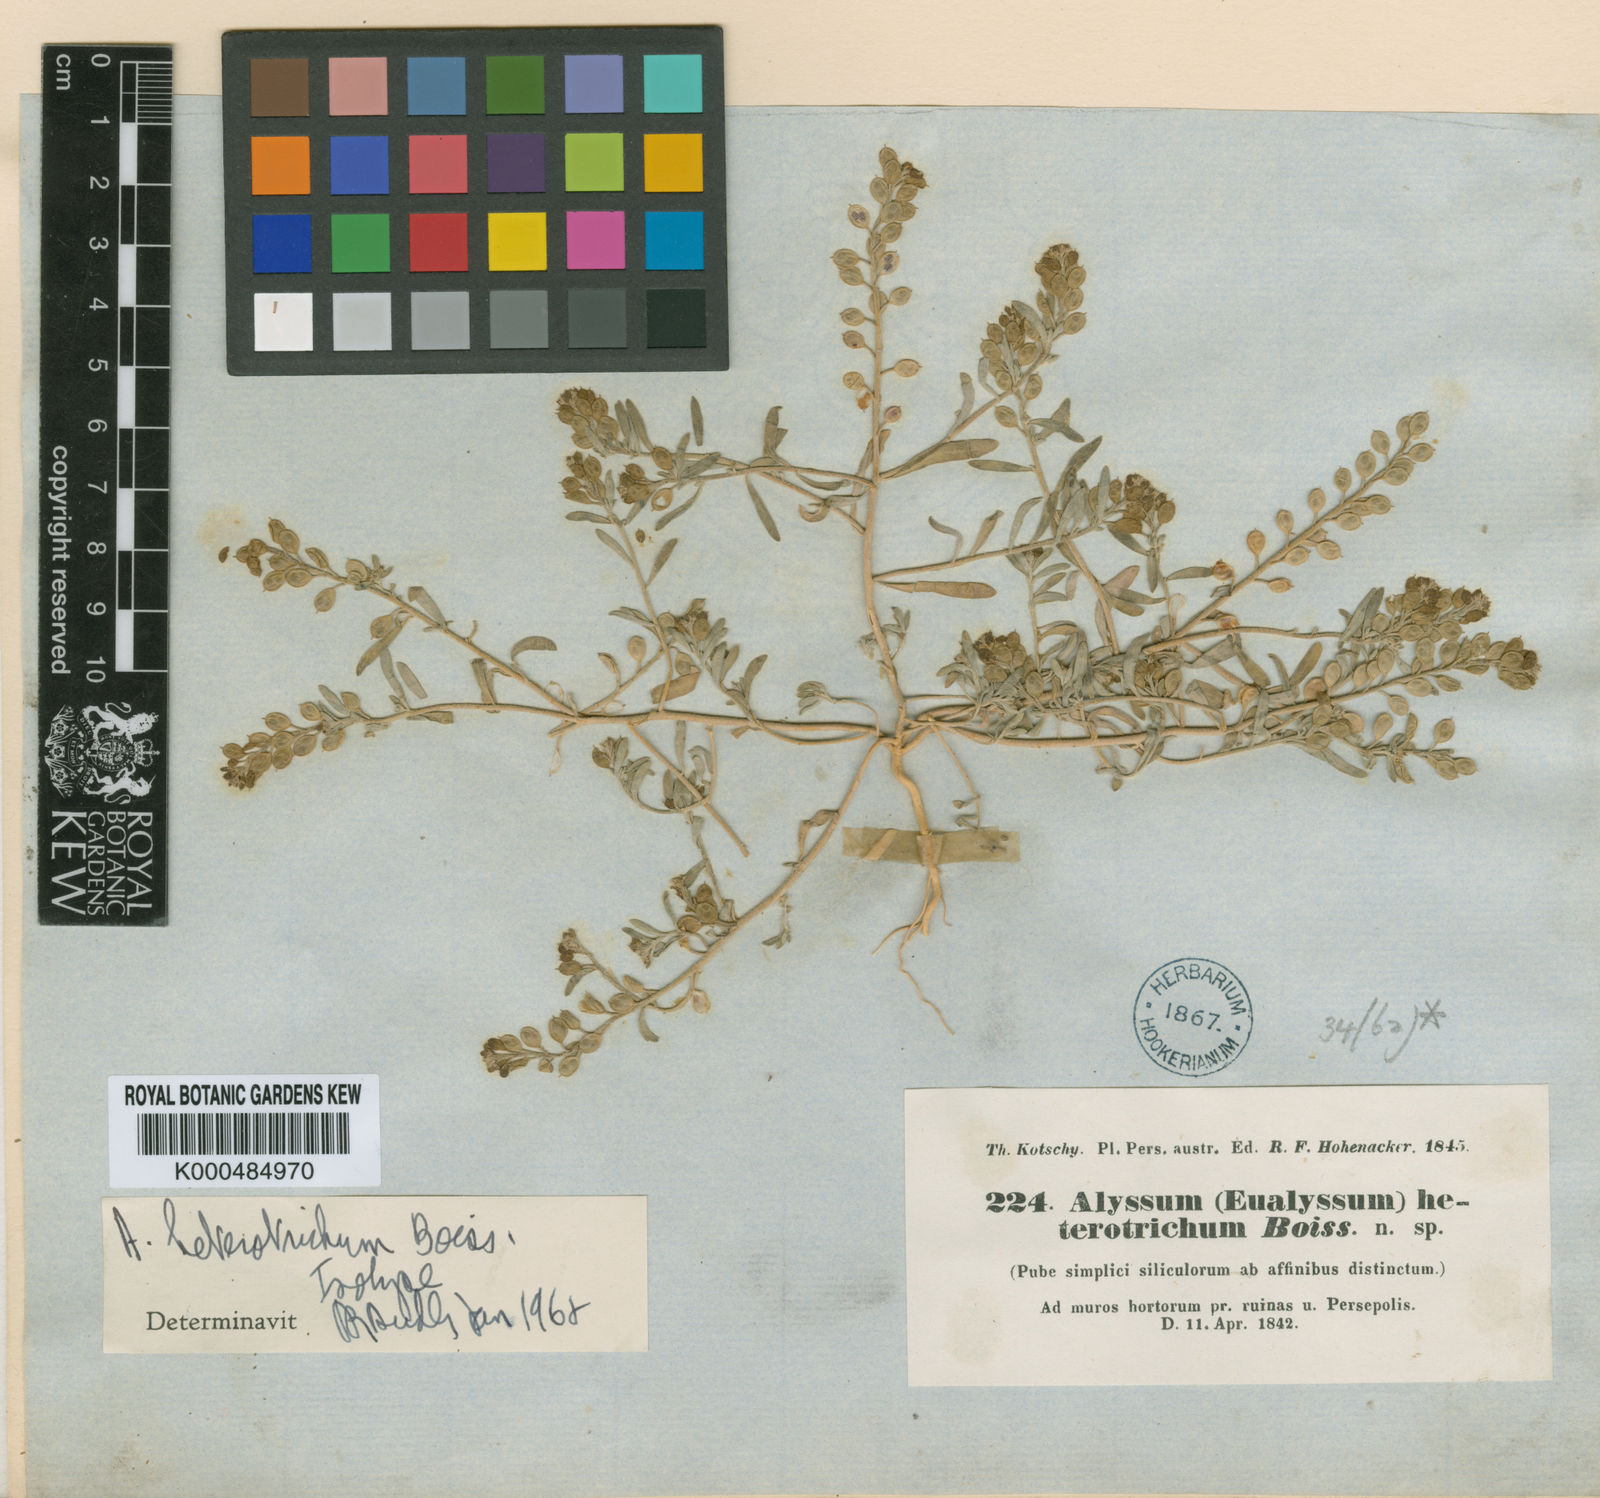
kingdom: Plantae
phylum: Tracheophyta
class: Magnoliopsida
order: Brassicales
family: Brassicaceae
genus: Meniocus
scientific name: Meniocus
